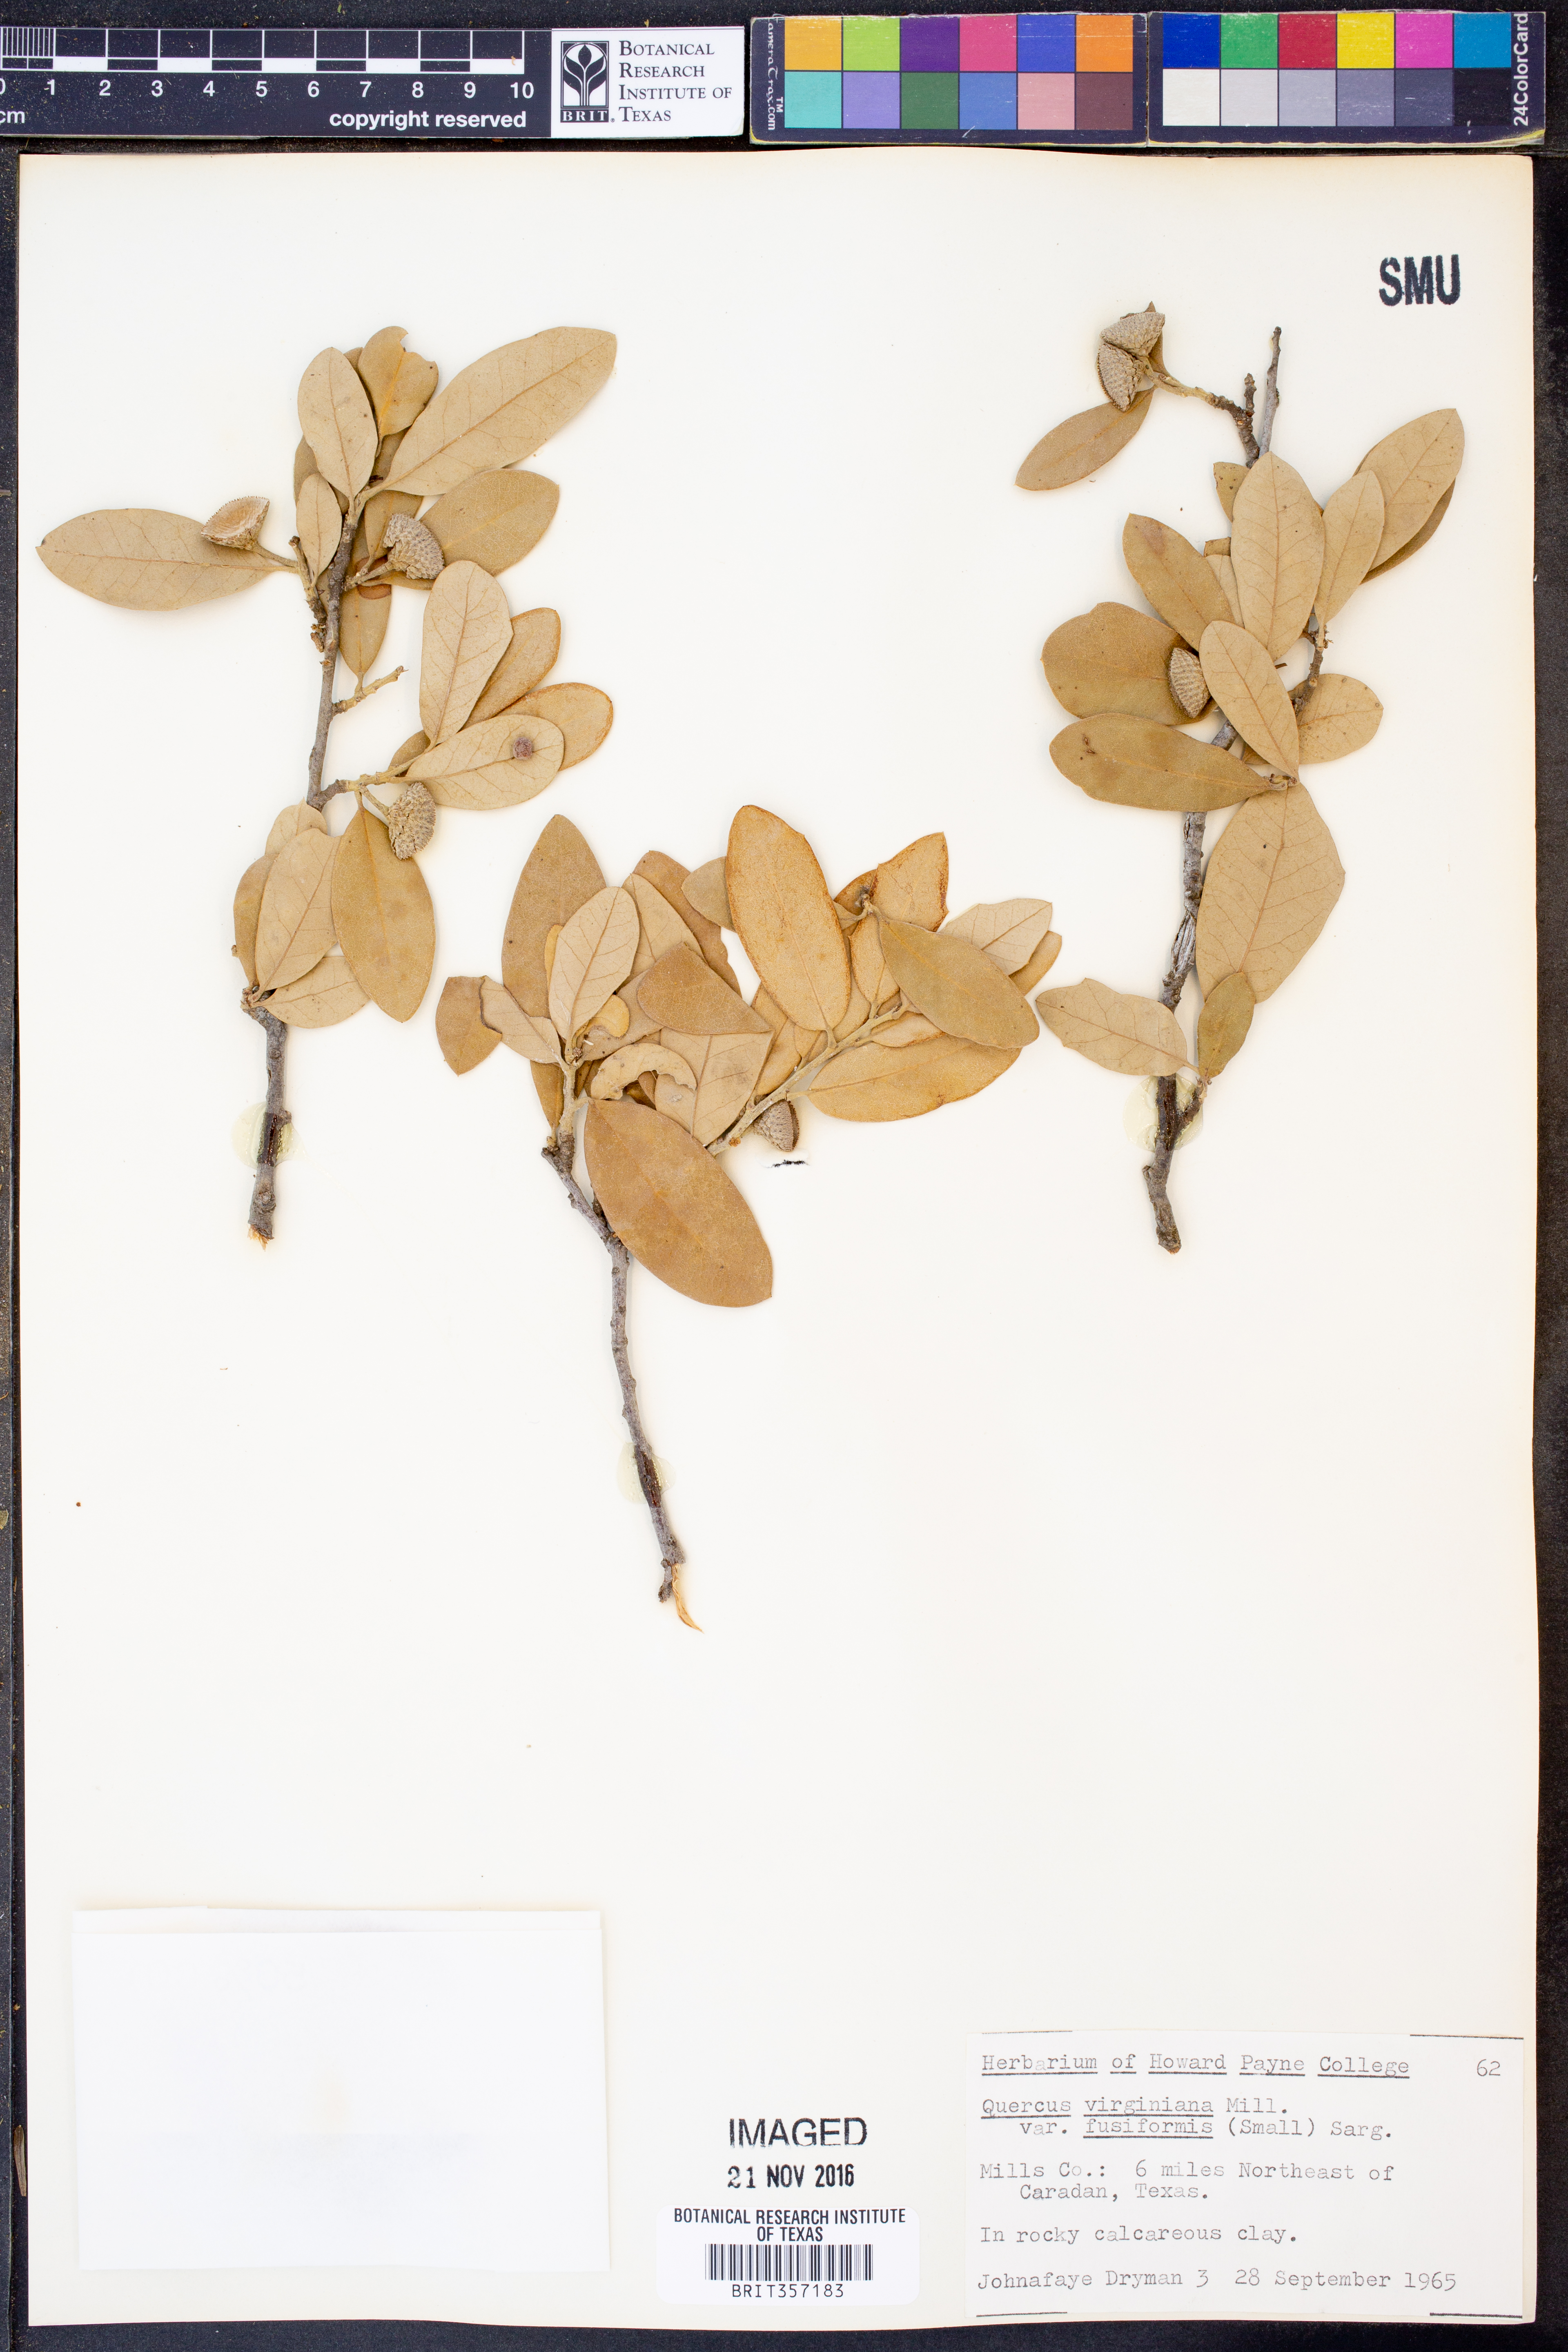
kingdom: Plantae
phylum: Tracheophyta
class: Magnoliopsida
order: Fagales
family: Fagaceae
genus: Quercus
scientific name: Quercus fusiformis
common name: Texas live oak
